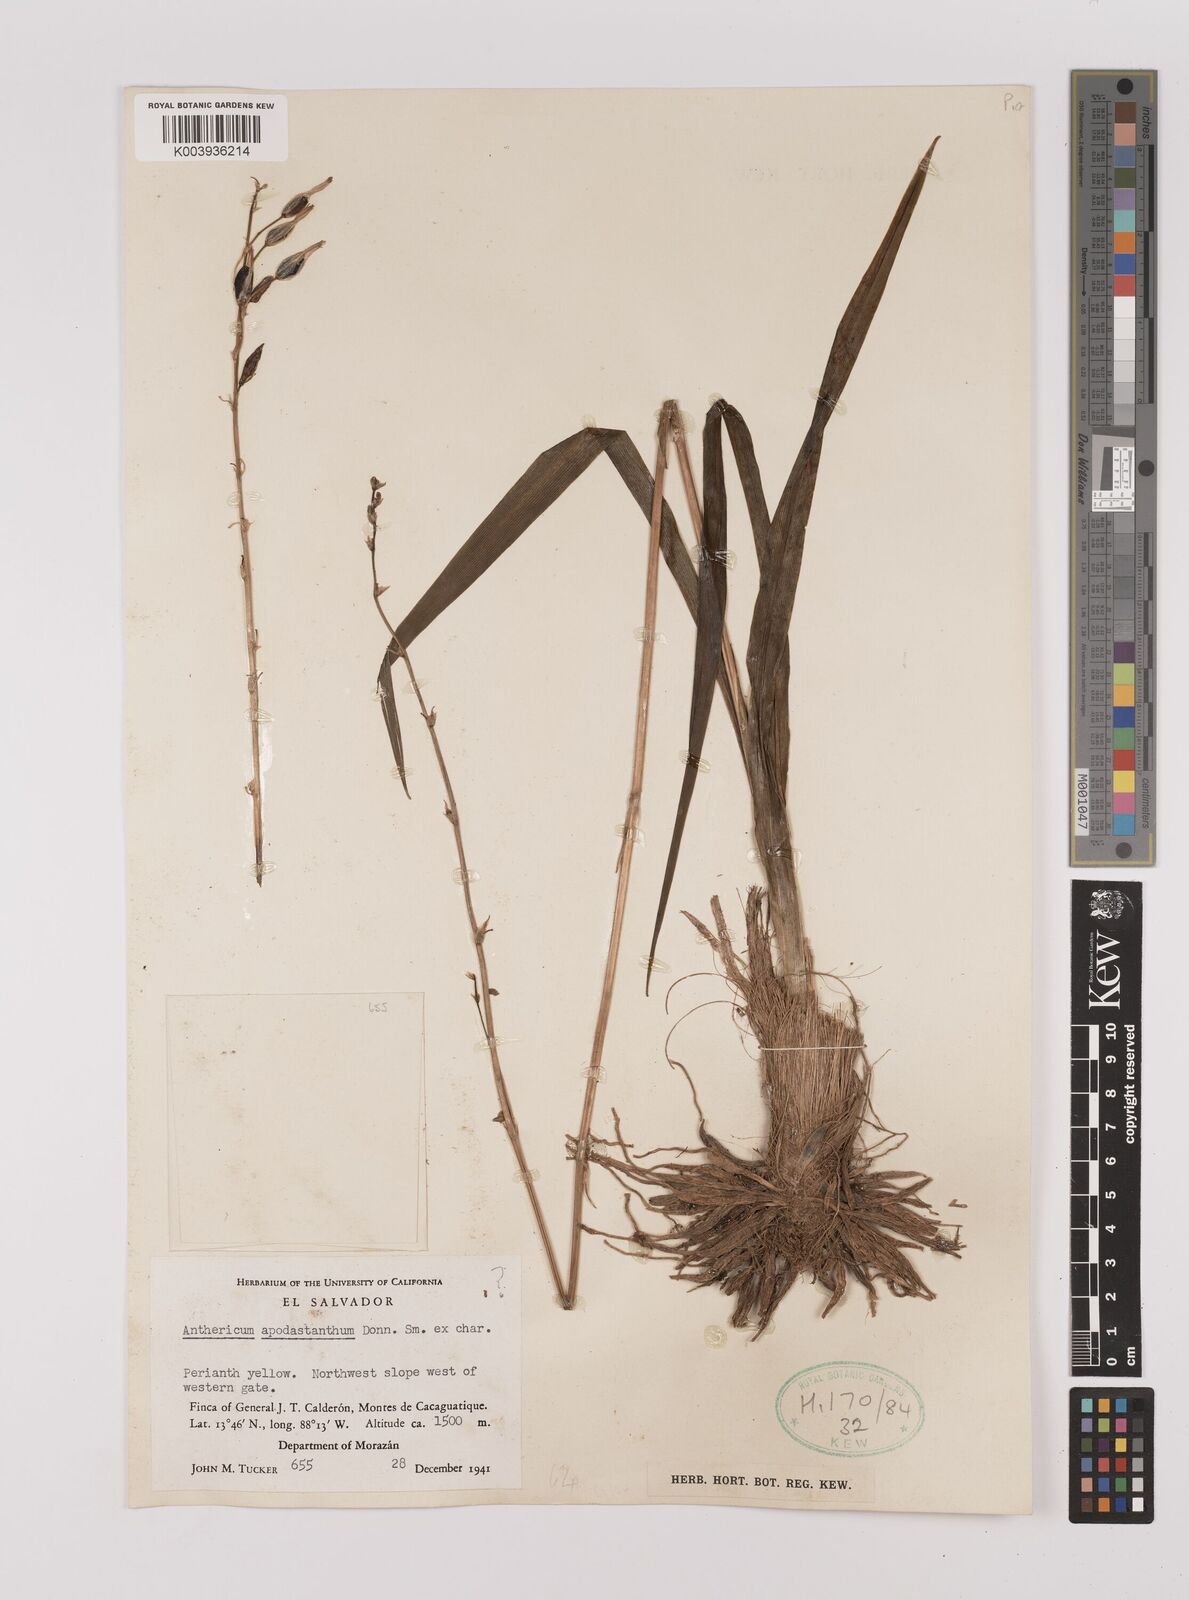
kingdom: Plantae
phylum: Tracheophyta
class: Liliopsida
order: Asparagales
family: Asparagaceae
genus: Echeandia
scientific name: Echeandia skinneri
